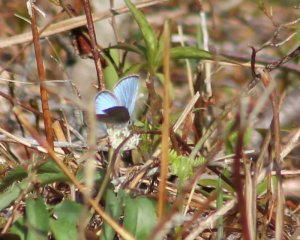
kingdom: Animalia
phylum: Arthropoda
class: Insecta
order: Lepidoptera
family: Lycaenidae
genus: Celastrina
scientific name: Celastrina lucia
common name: Northern Spring Azure
